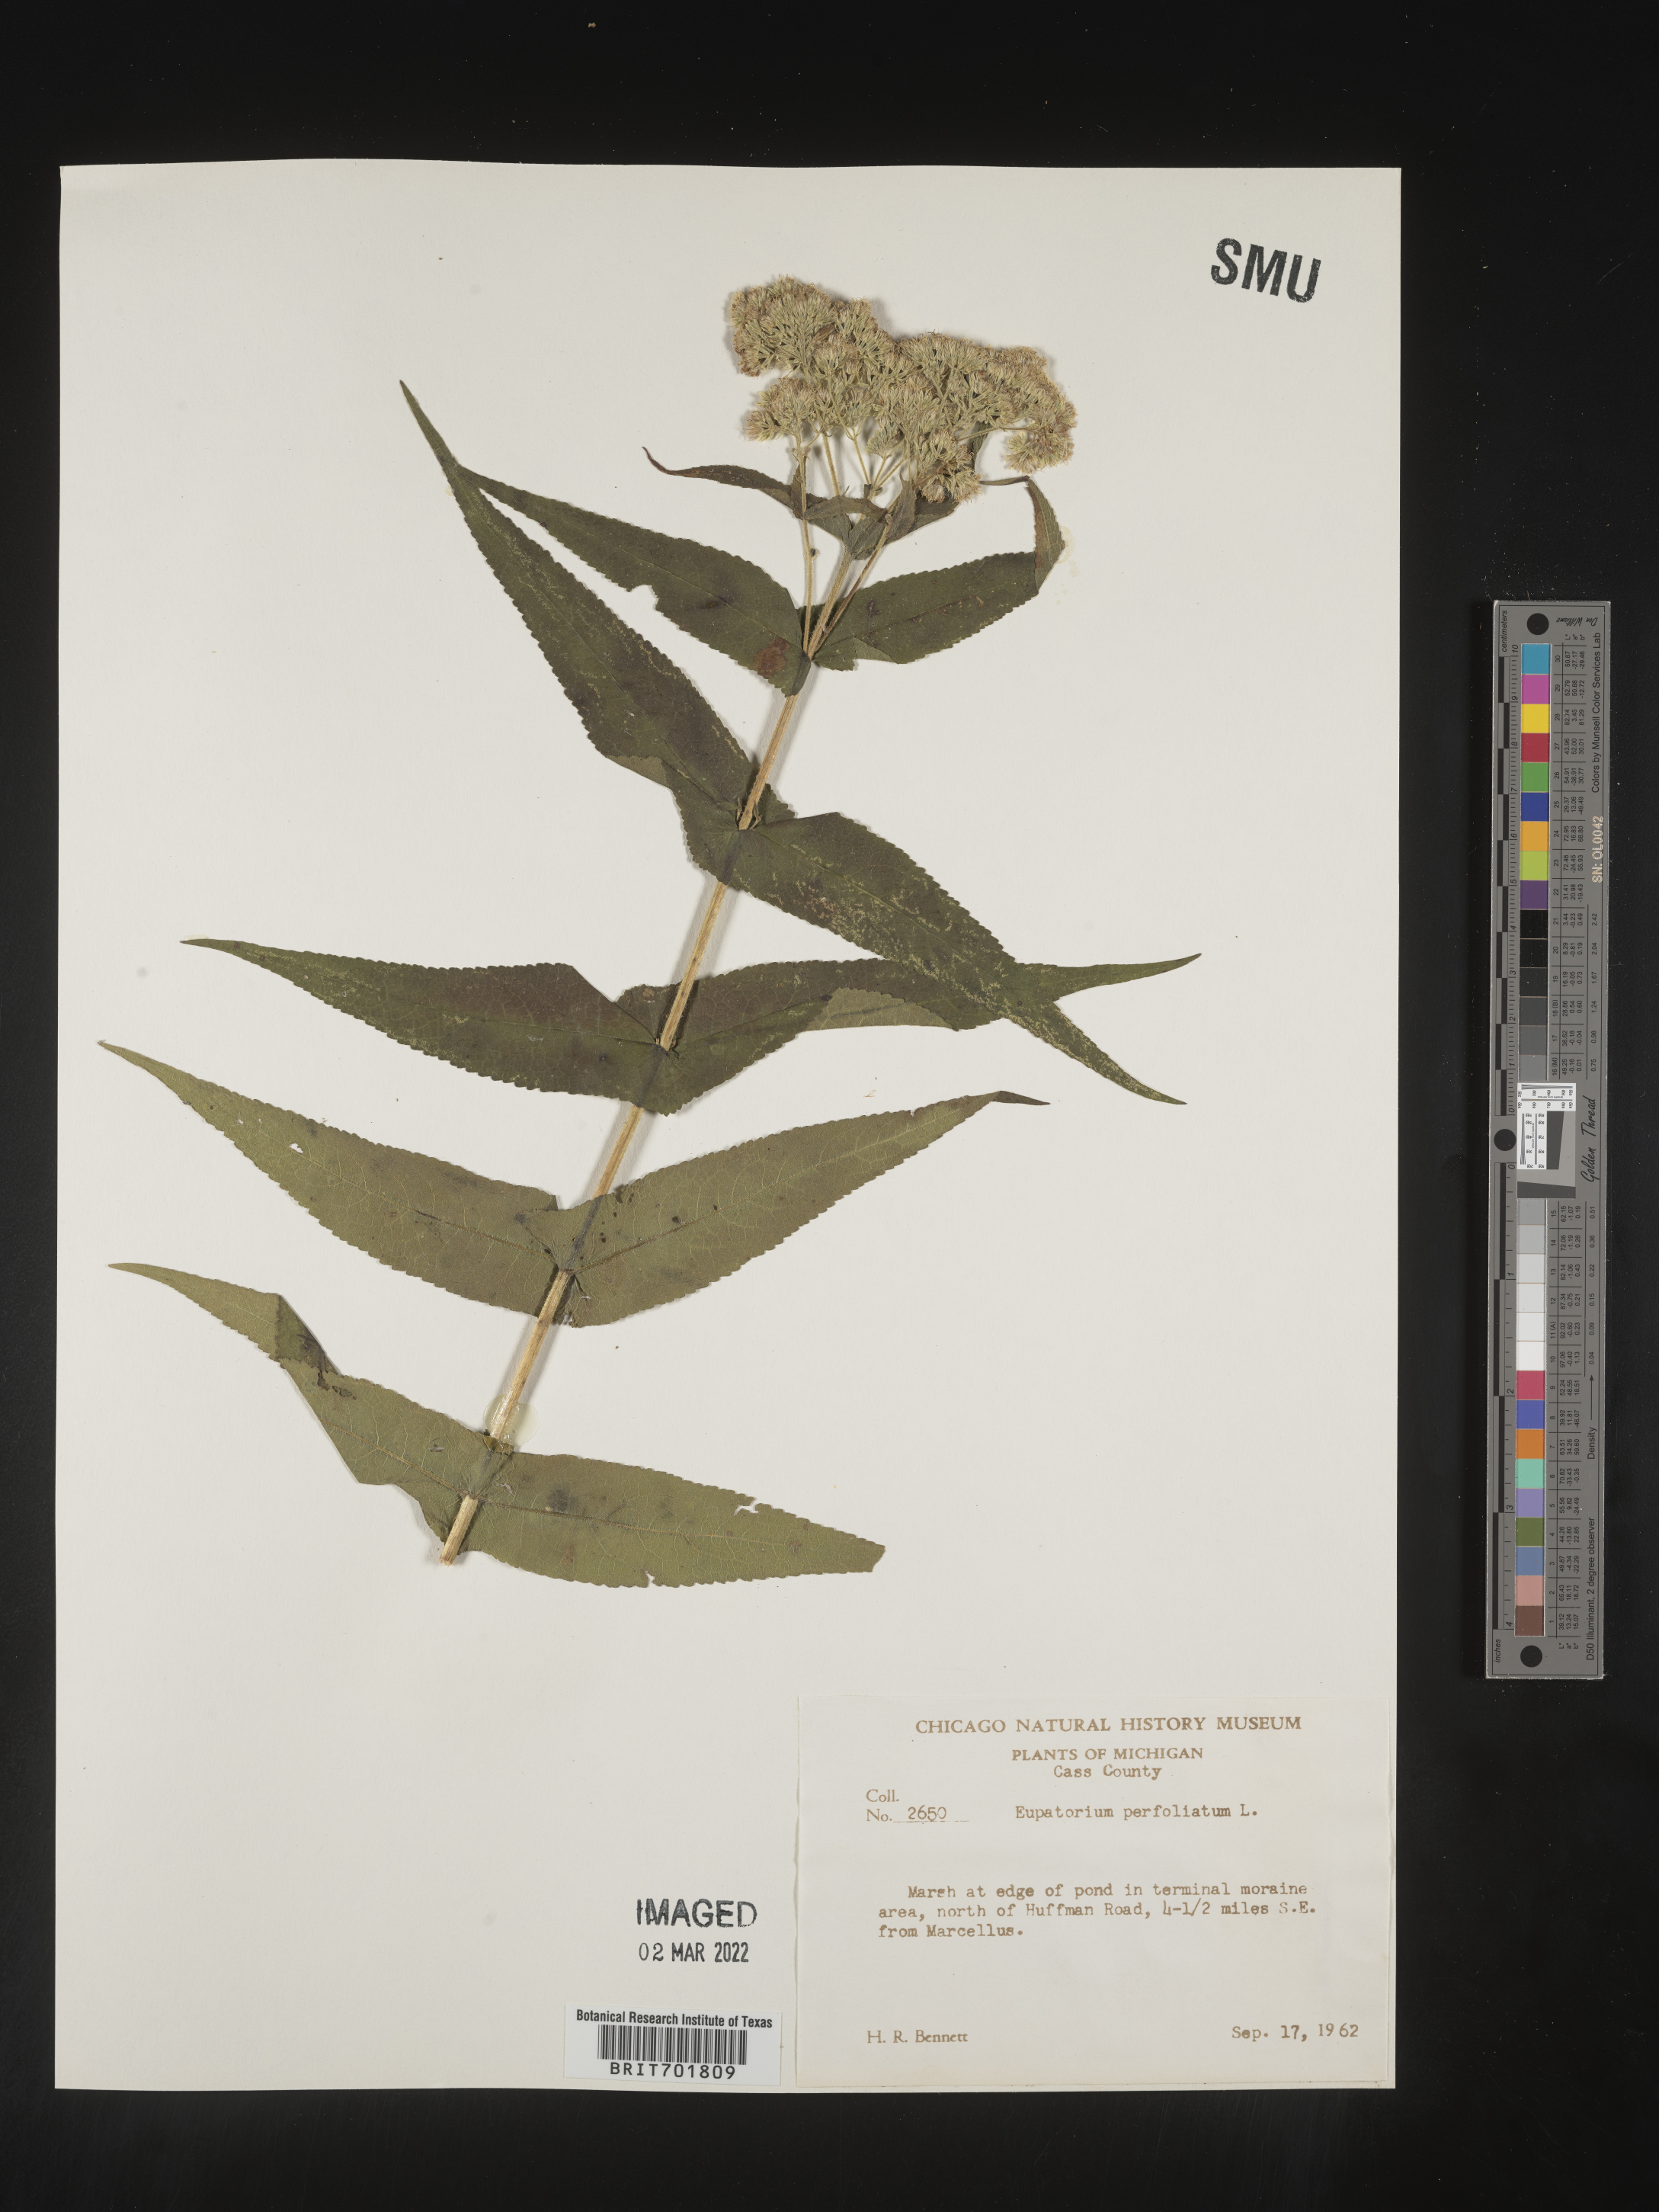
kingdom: Plantae
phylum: Tracheophyta
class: Magnoliopsida
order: Asterales
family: Asteraceae
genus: Eupatorium
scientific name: Eupatorium perfoliatum
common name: Boneset
